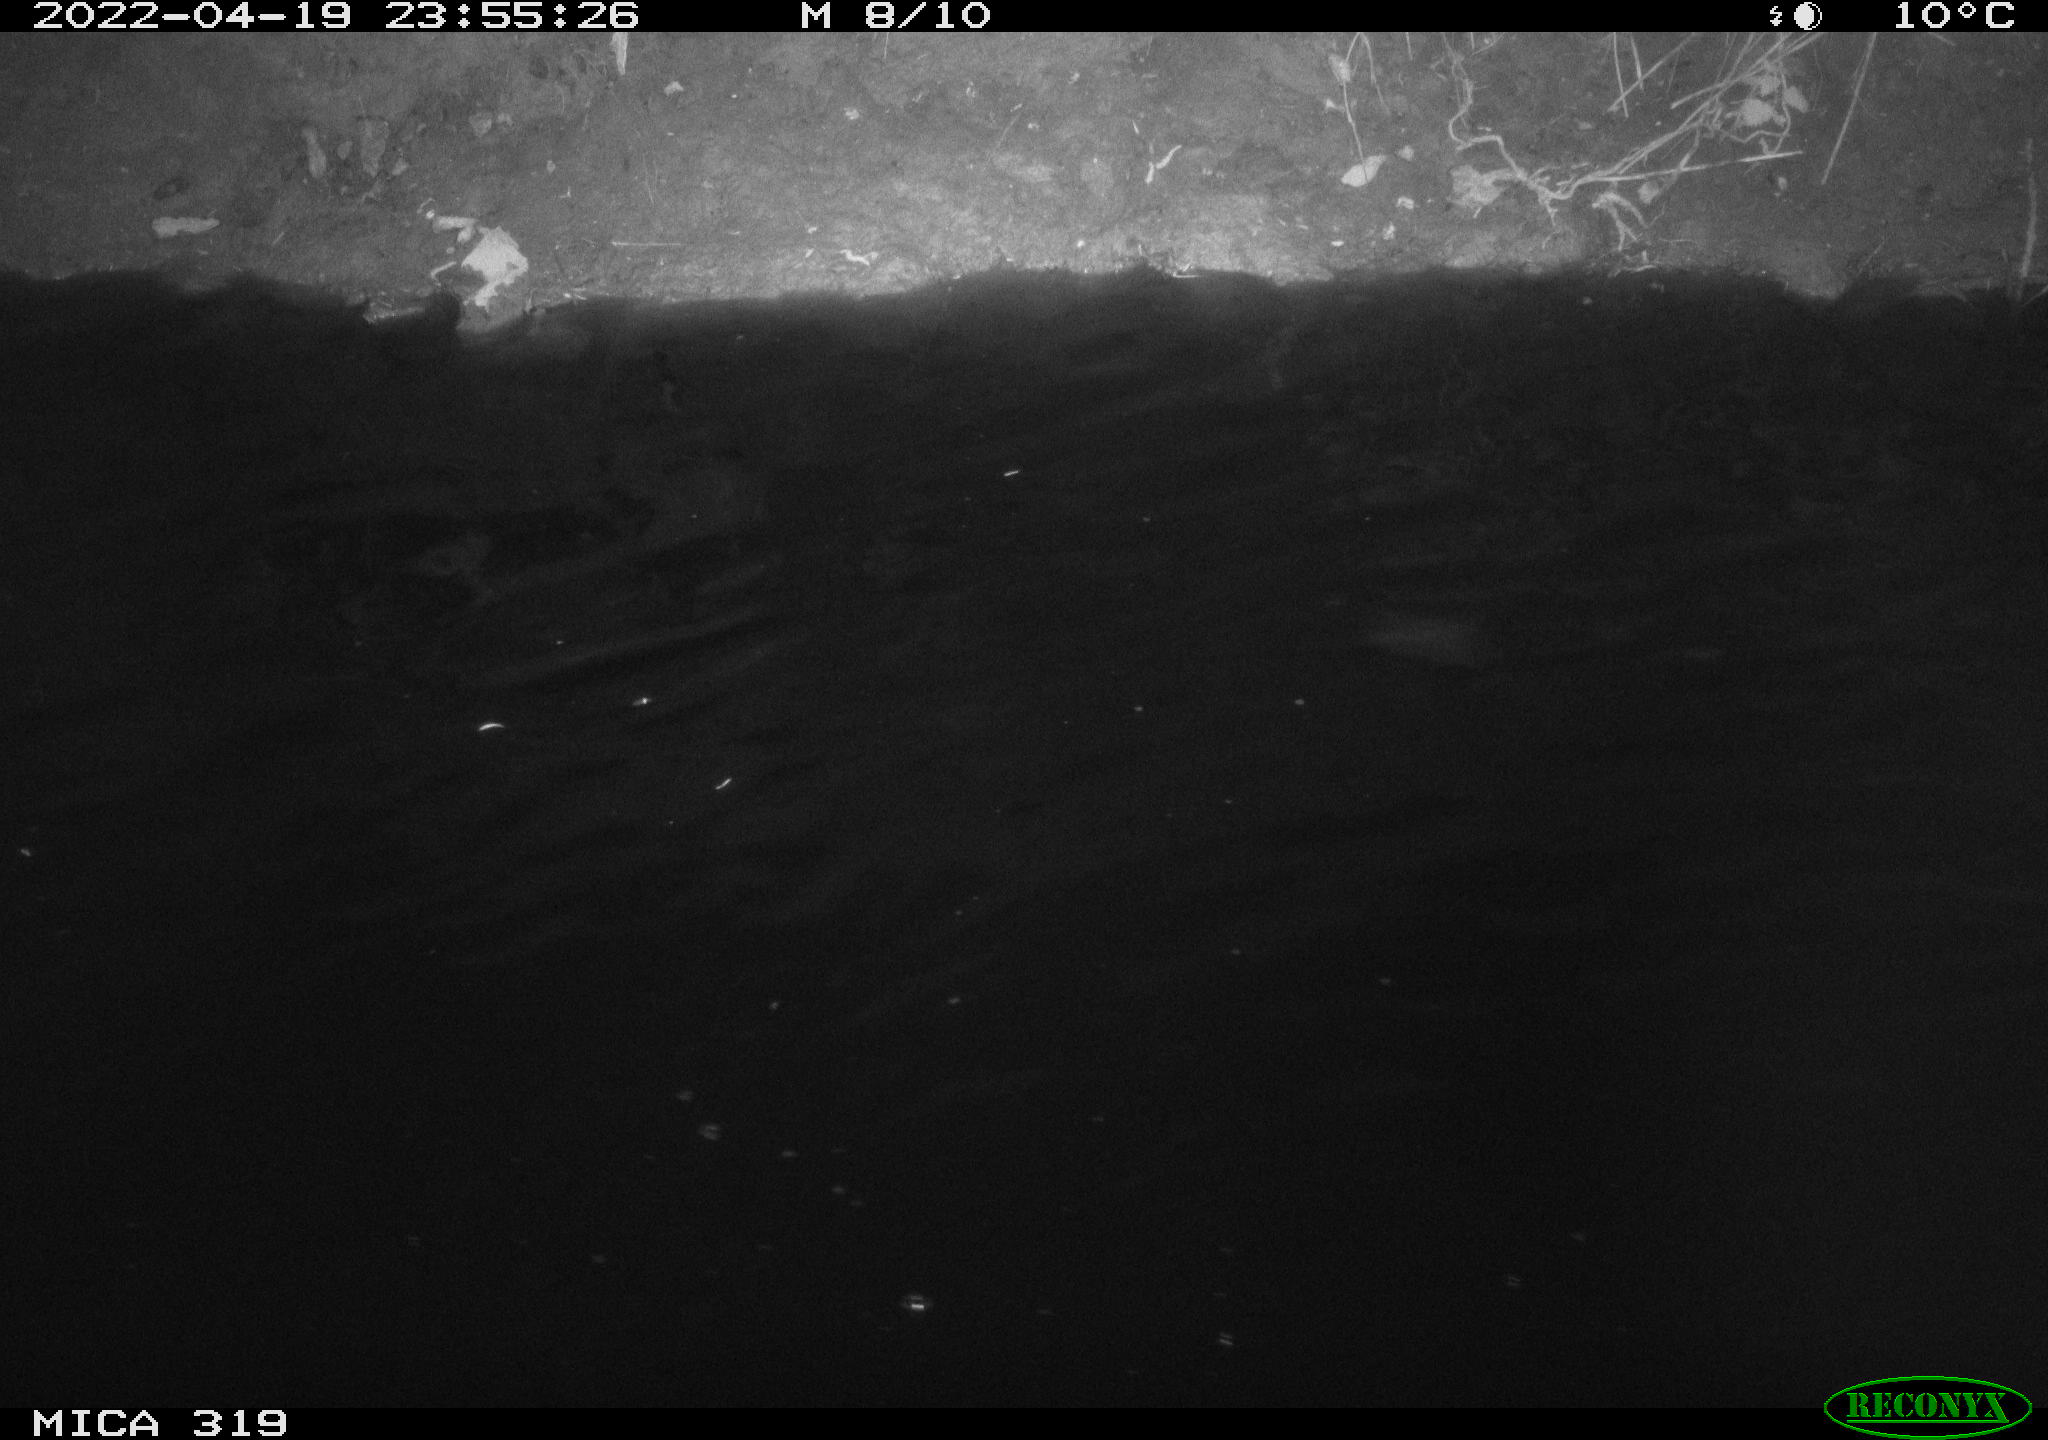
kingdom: Animalia
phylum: Chordata
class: Aves
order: Anseriformes
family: Anatidae
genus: Anas
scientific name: Anas platyrhynchos
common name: Mallard
